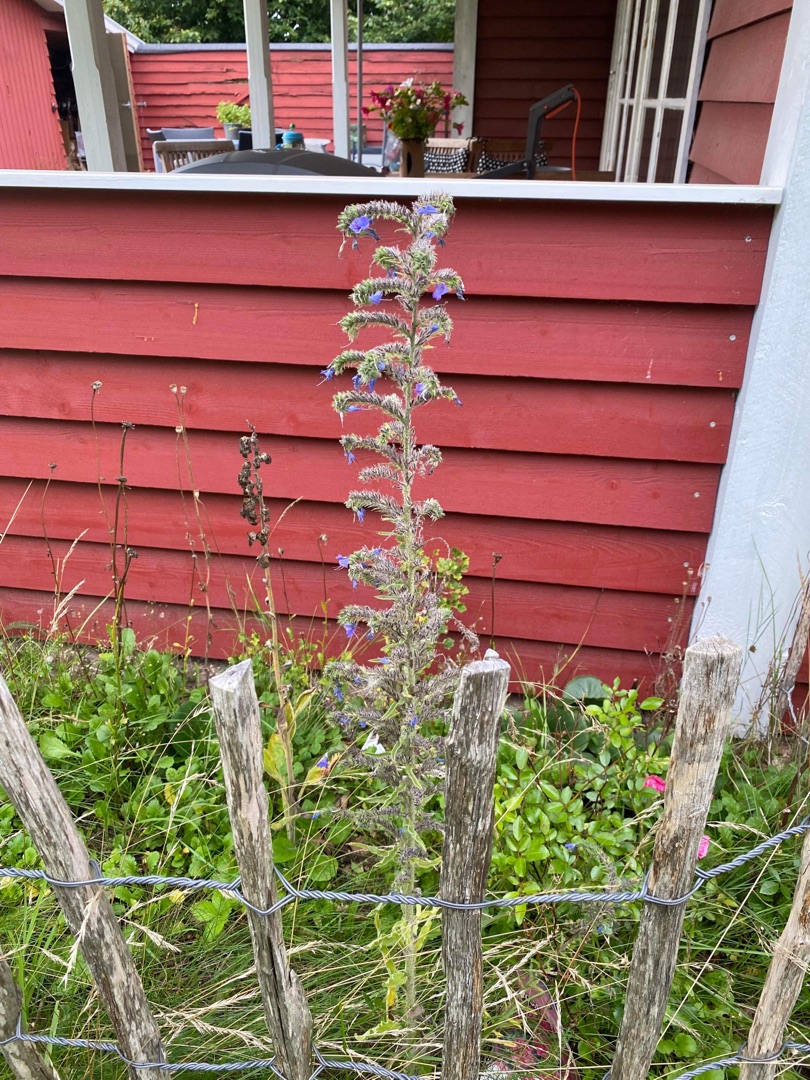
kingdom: Plantae
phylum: Tracheophyta
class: Magnoliopsida
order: Boraginales
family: Boraginaceae
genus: Echium
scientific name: Echium vulgare
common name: Slangehoved
